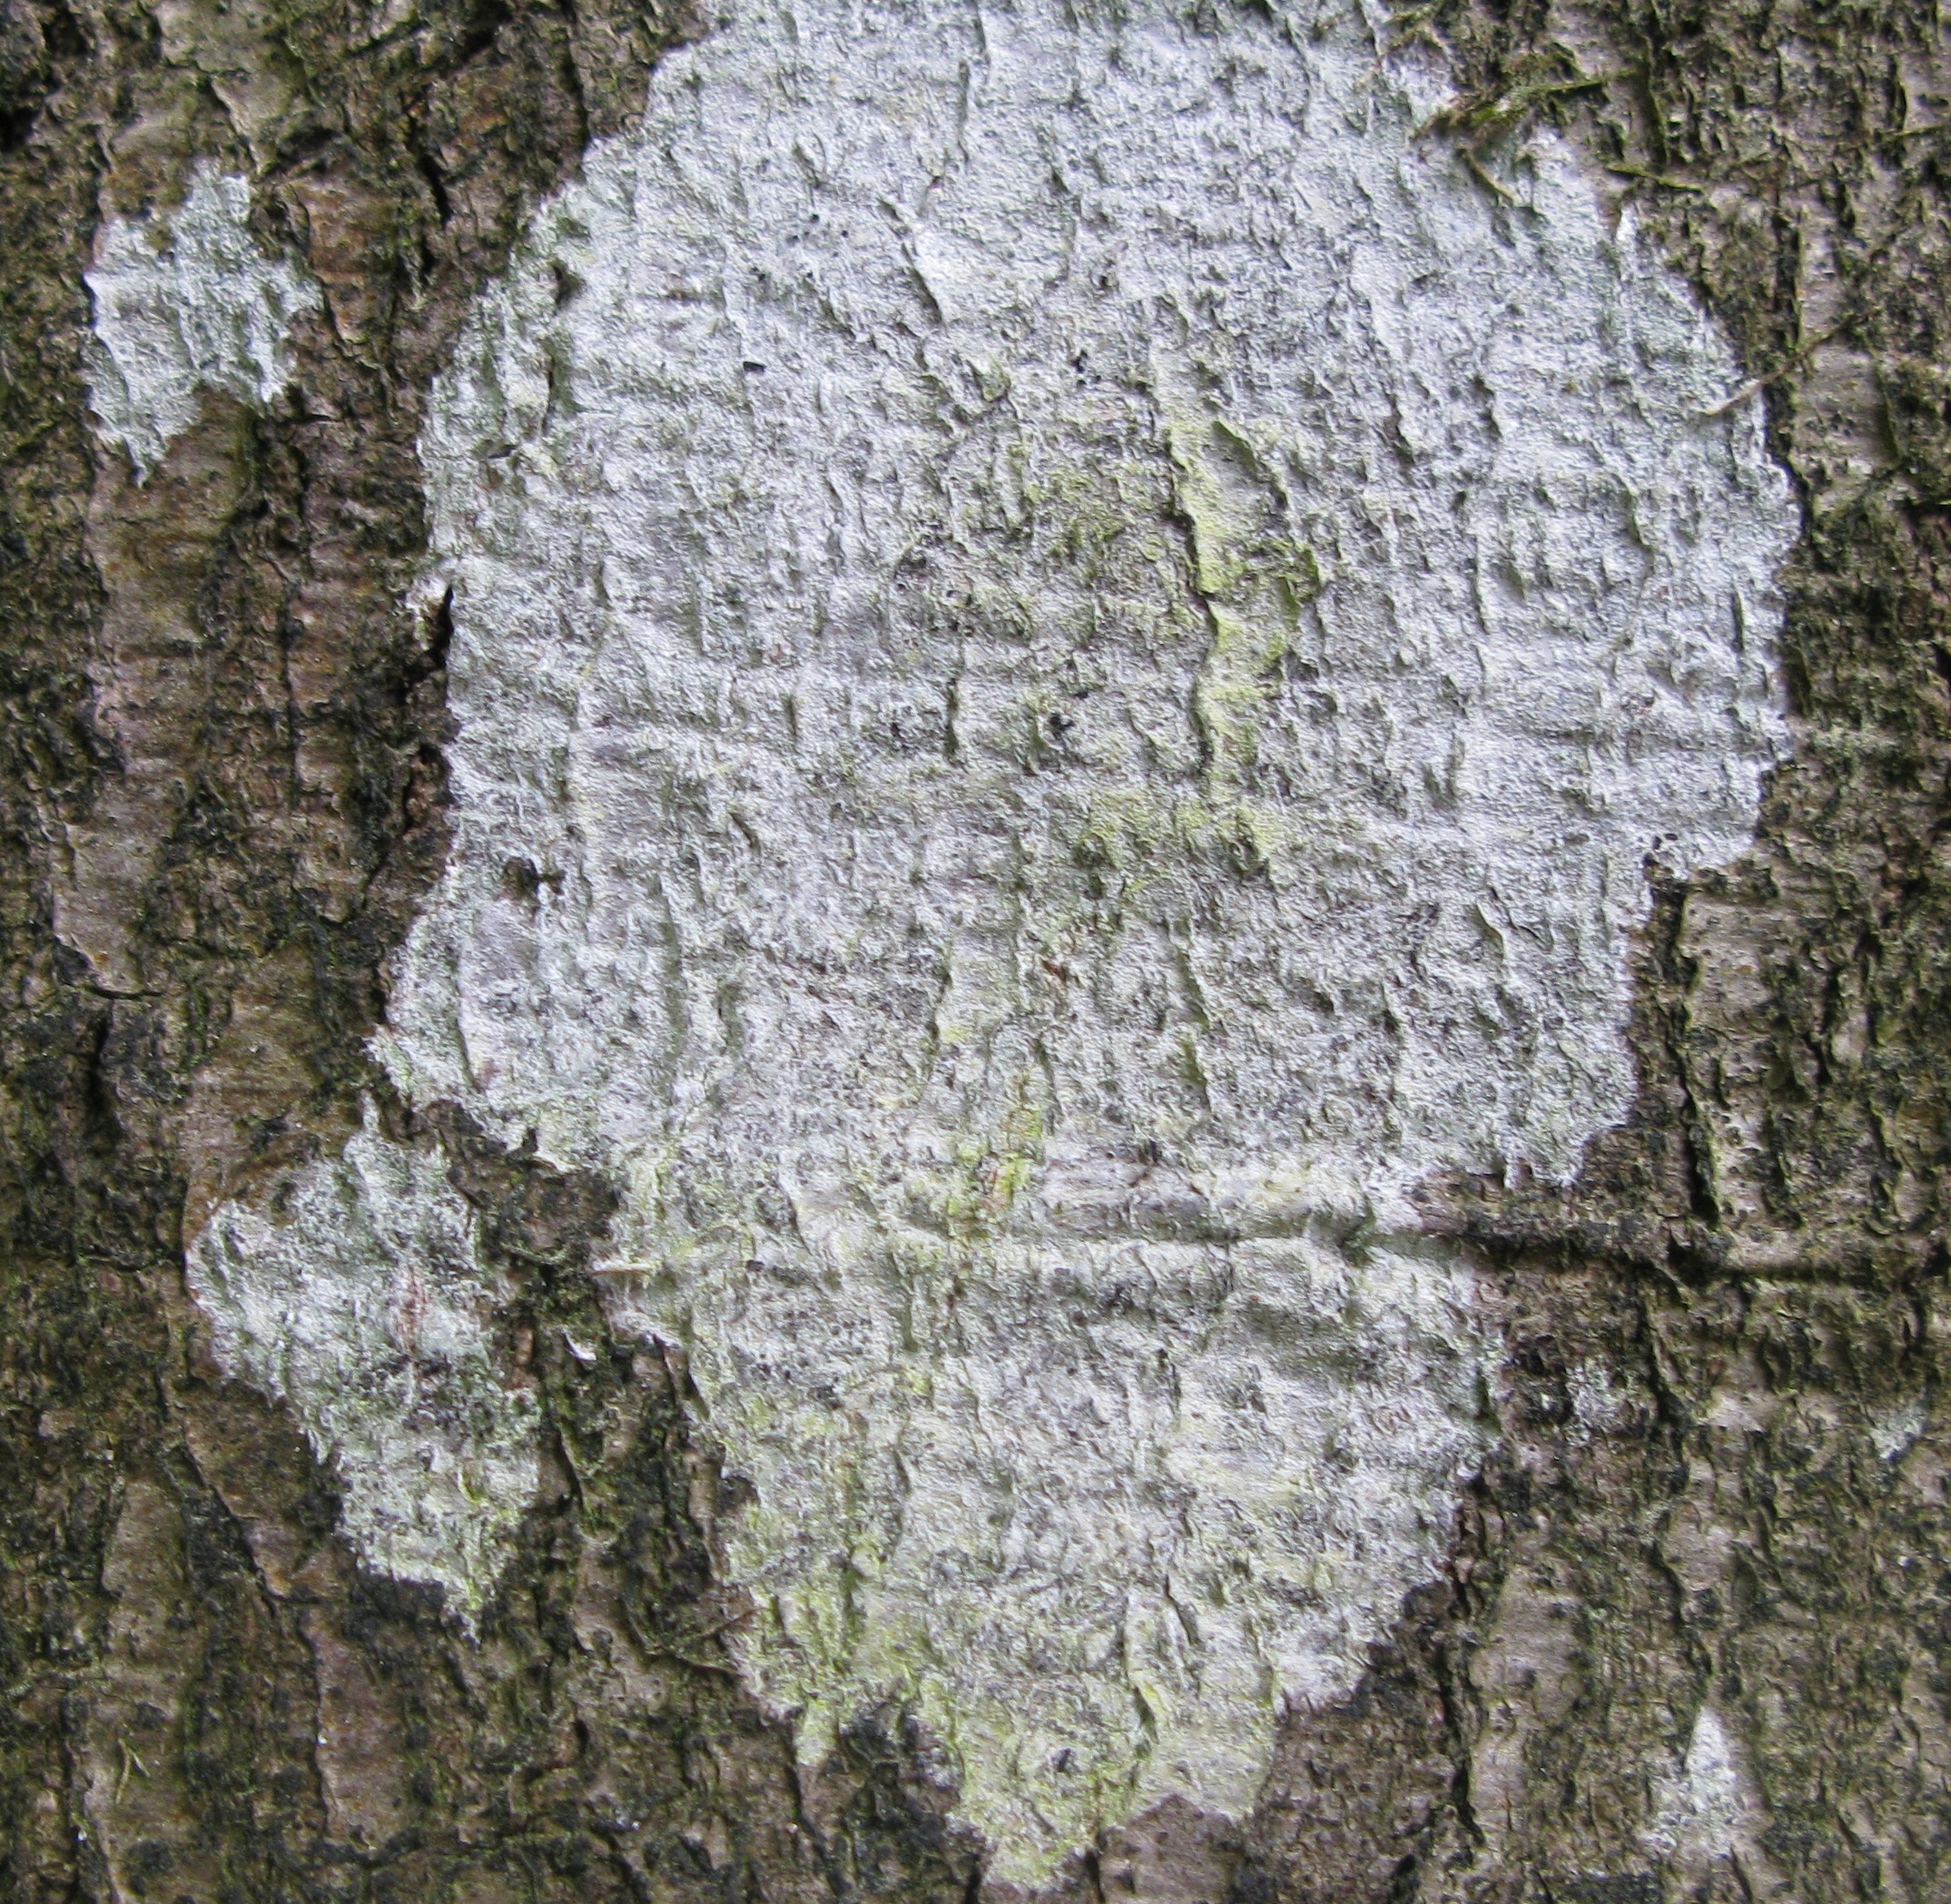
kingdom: Fungi
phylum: Ascomycota
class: Lecanoromycetes
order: Ostropales
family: Phlyctidaceae
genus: Phlyctis
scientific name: Phlyctis argena
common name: Almindelig sølvlav
